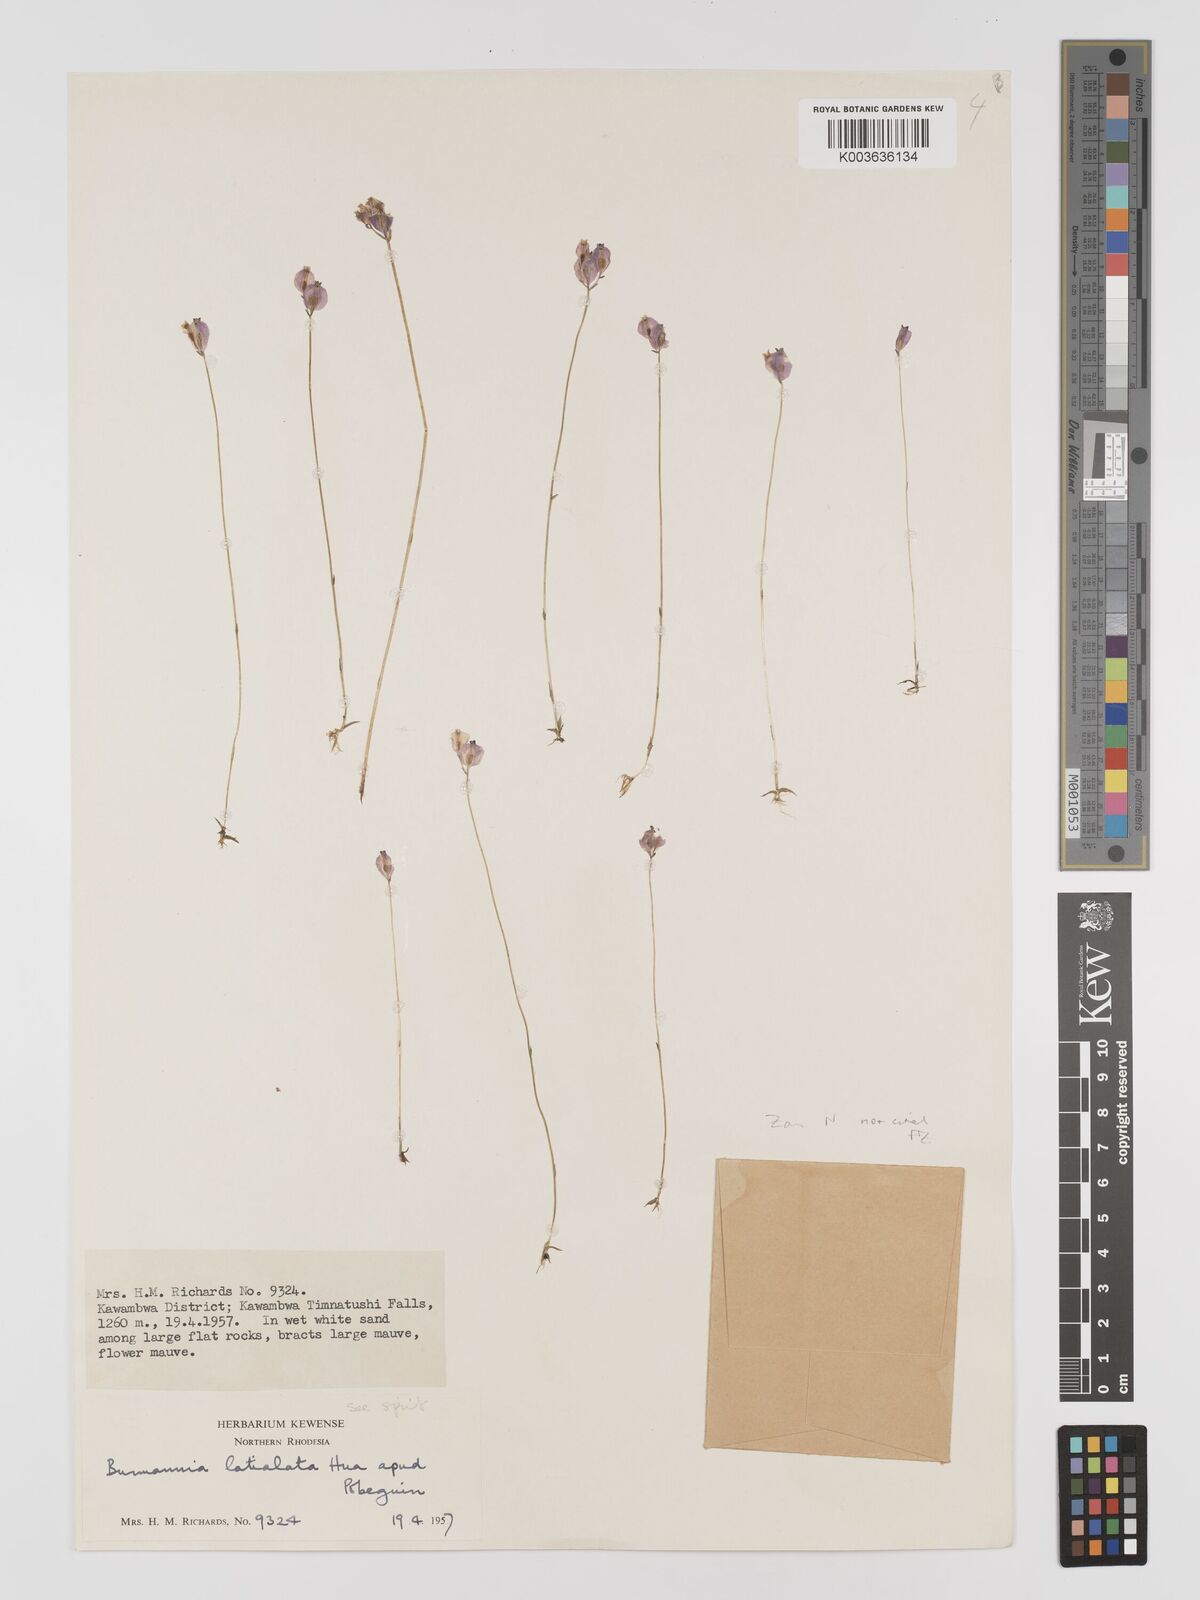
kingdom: Plantae
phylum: Tracheophyta
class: Liliopsida
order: Dioscoreales
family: Burmanniaceae
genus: Burmannia
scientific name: Burmannia madagascariensis
